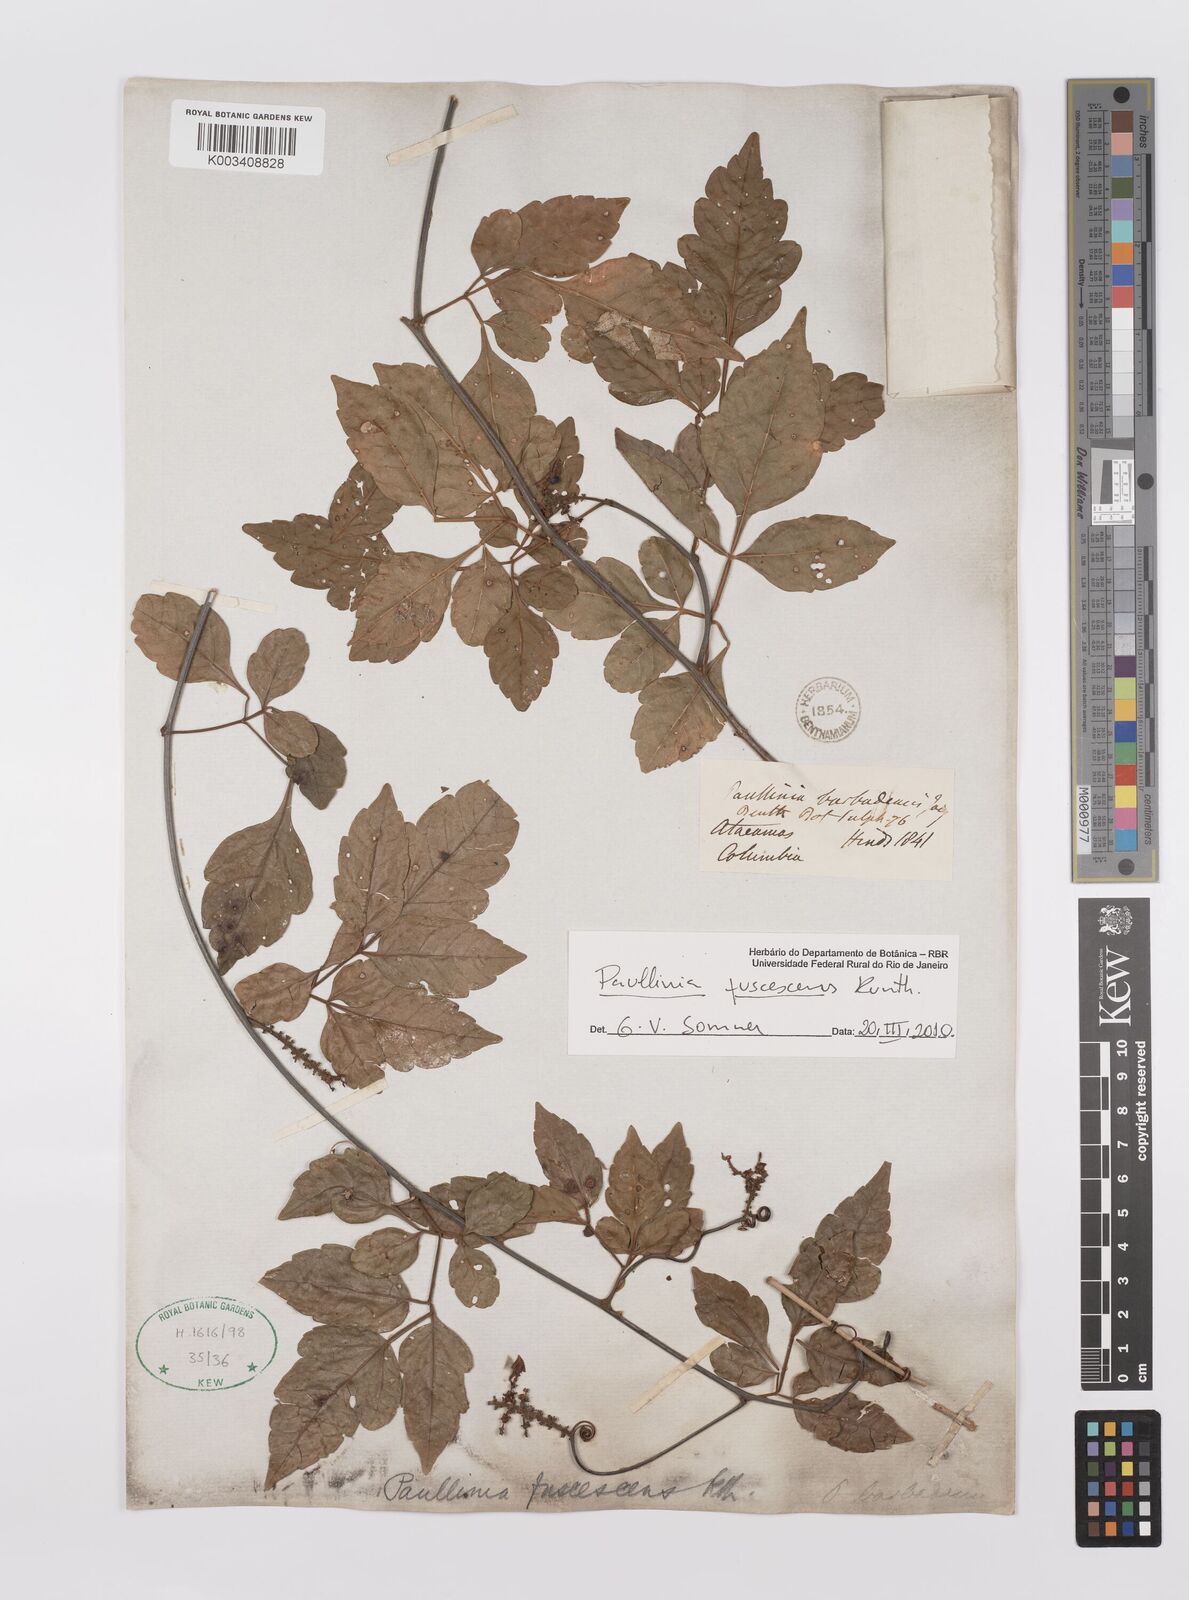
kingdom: Plantae
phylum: Tracheophyta
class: Magnoliopsida
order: Sapindales
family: Sapindaceae
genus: Paullinia
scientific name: Paullinia fuscescens
